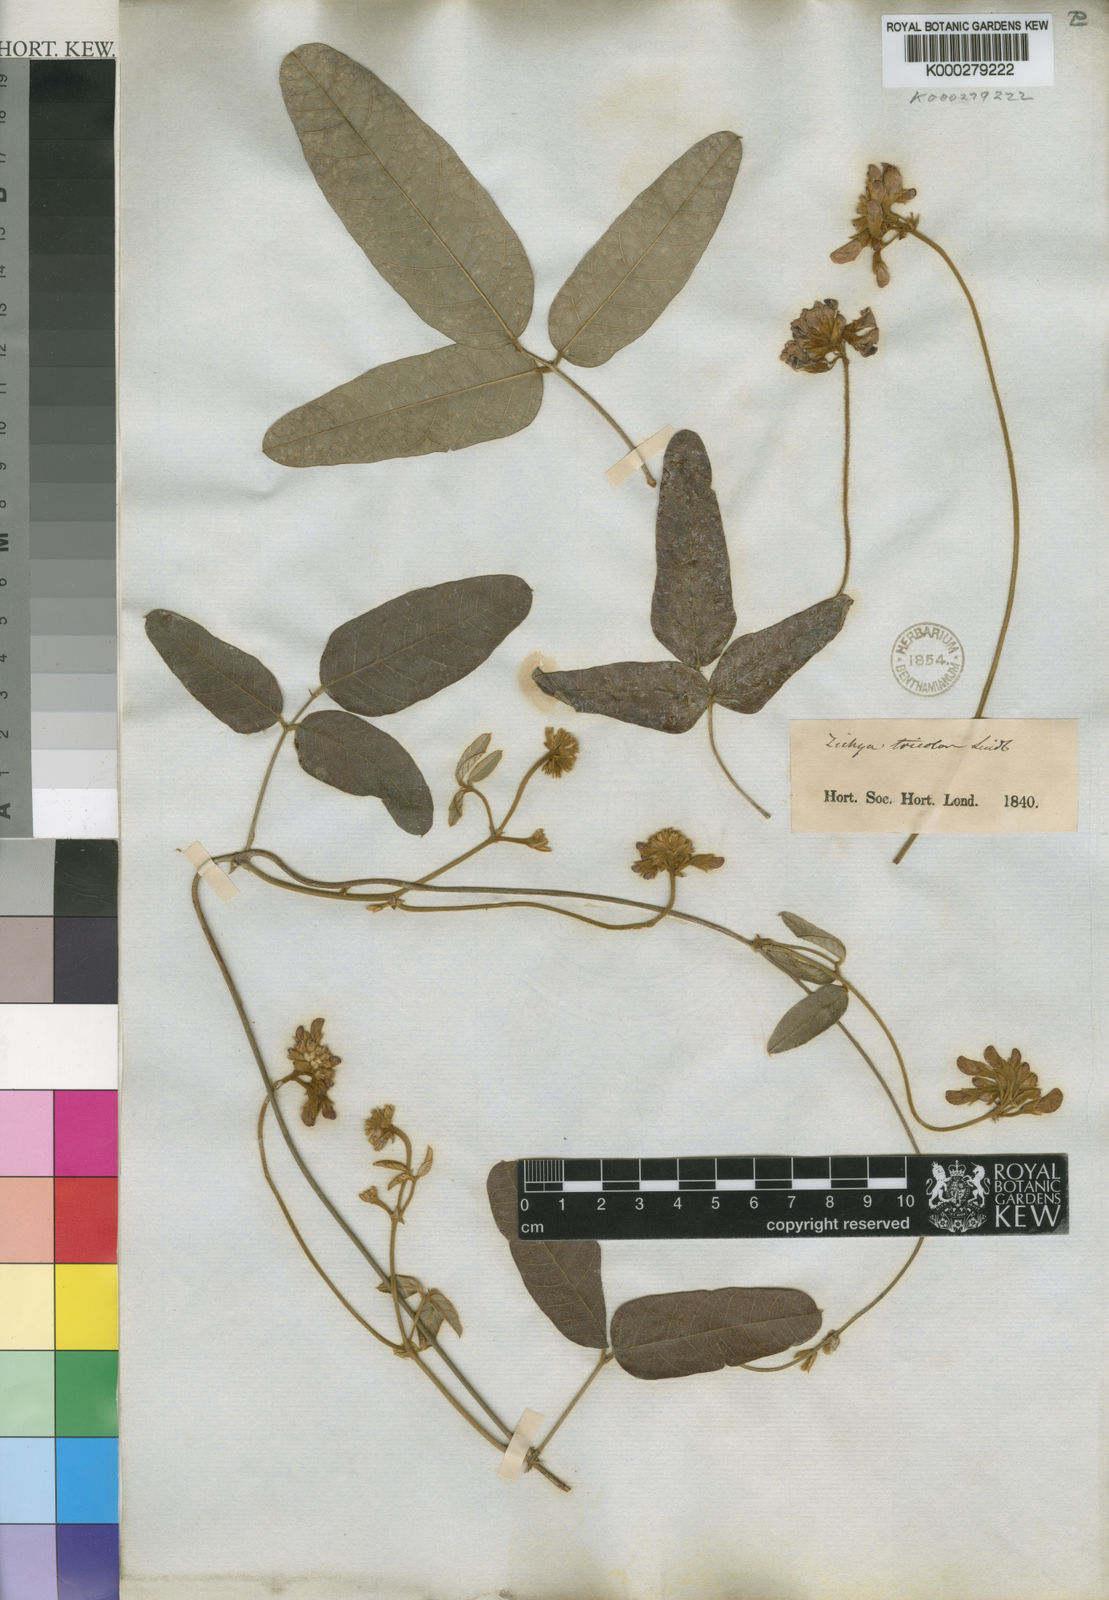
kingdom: Plantae
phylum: Tracheophyta
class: Magnoliopsida
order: Fabales
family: Fabaceae
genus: Kennedia
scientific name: Kennedia coccinea
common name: Coralvine
